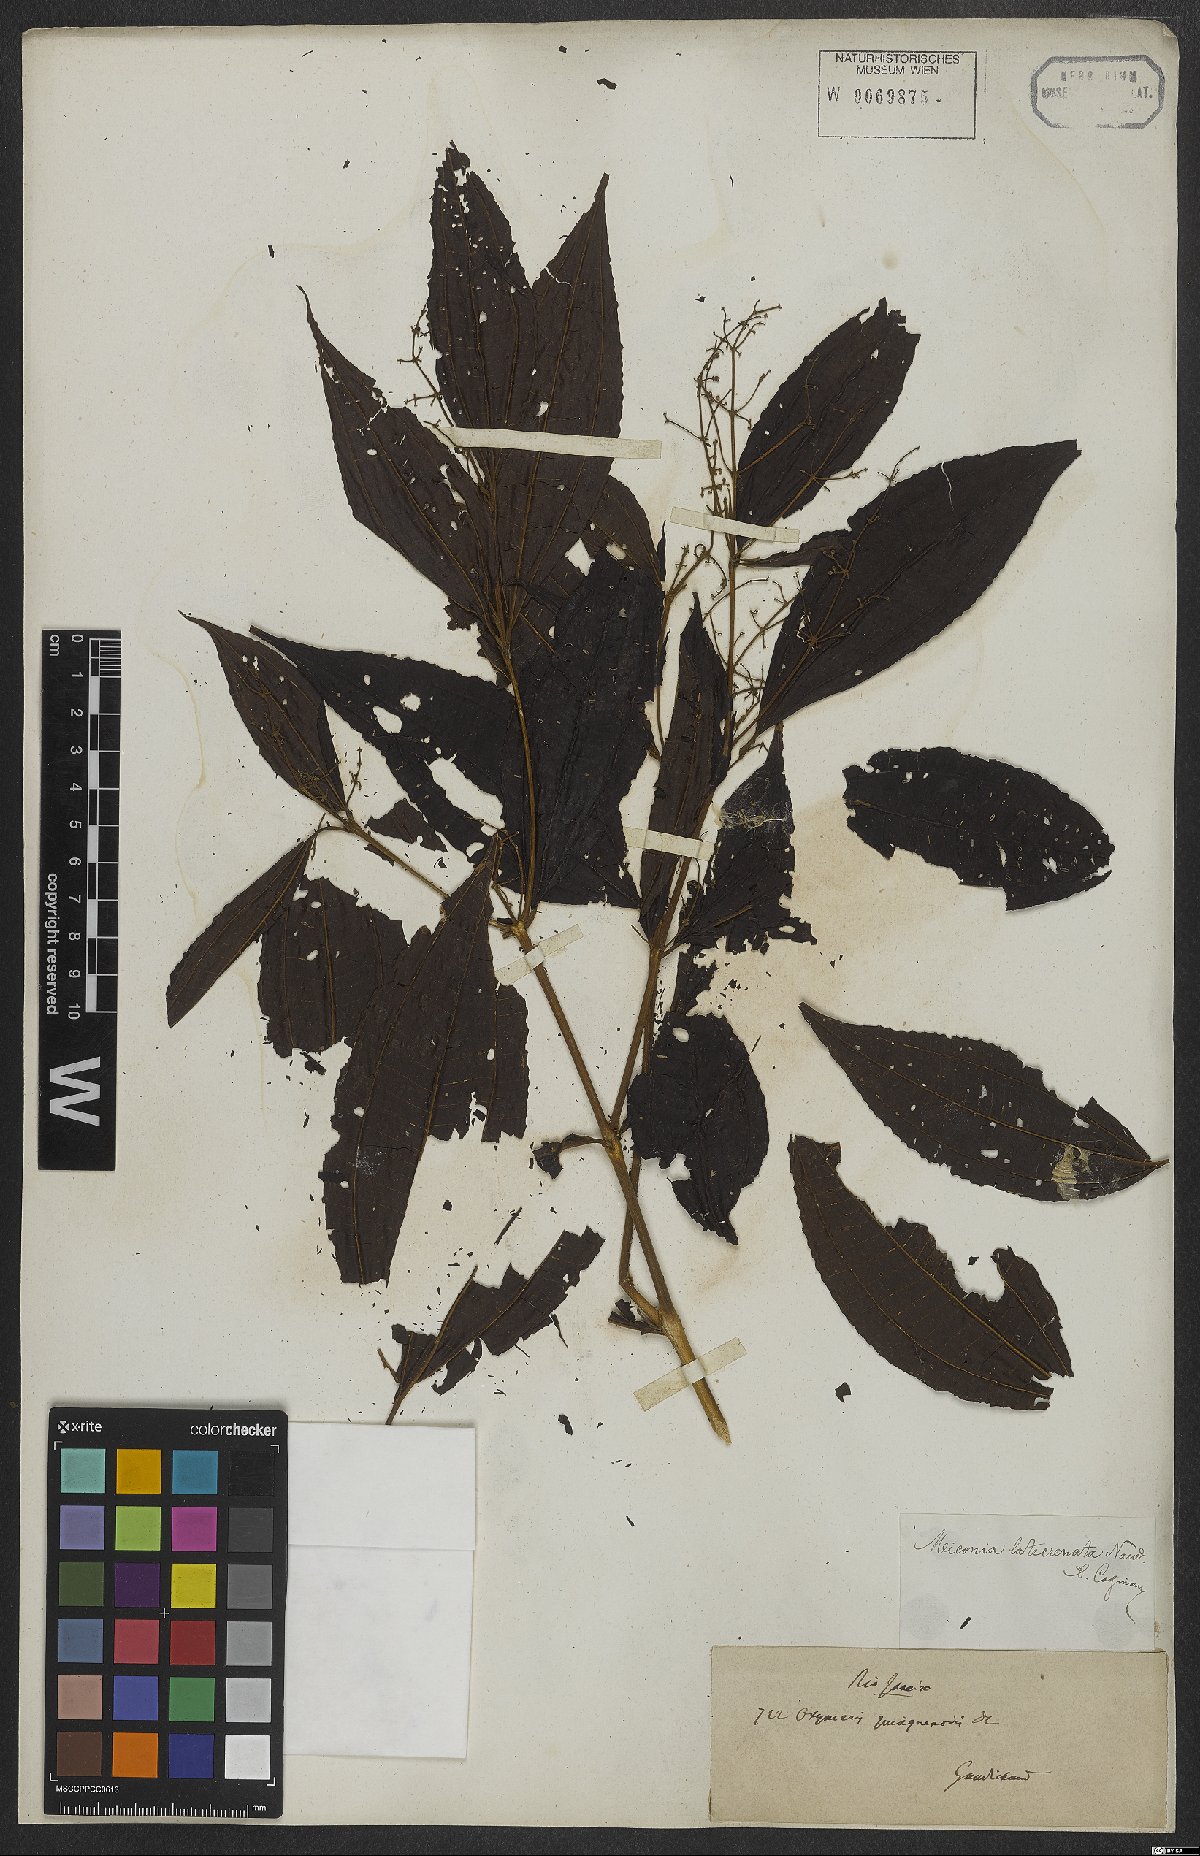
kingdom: Plantae
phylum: Tracheophyta
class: Magnoliopsida
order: Myrtales
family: Melastomataceae
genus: Miconia
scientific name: Miconia latecrenata
